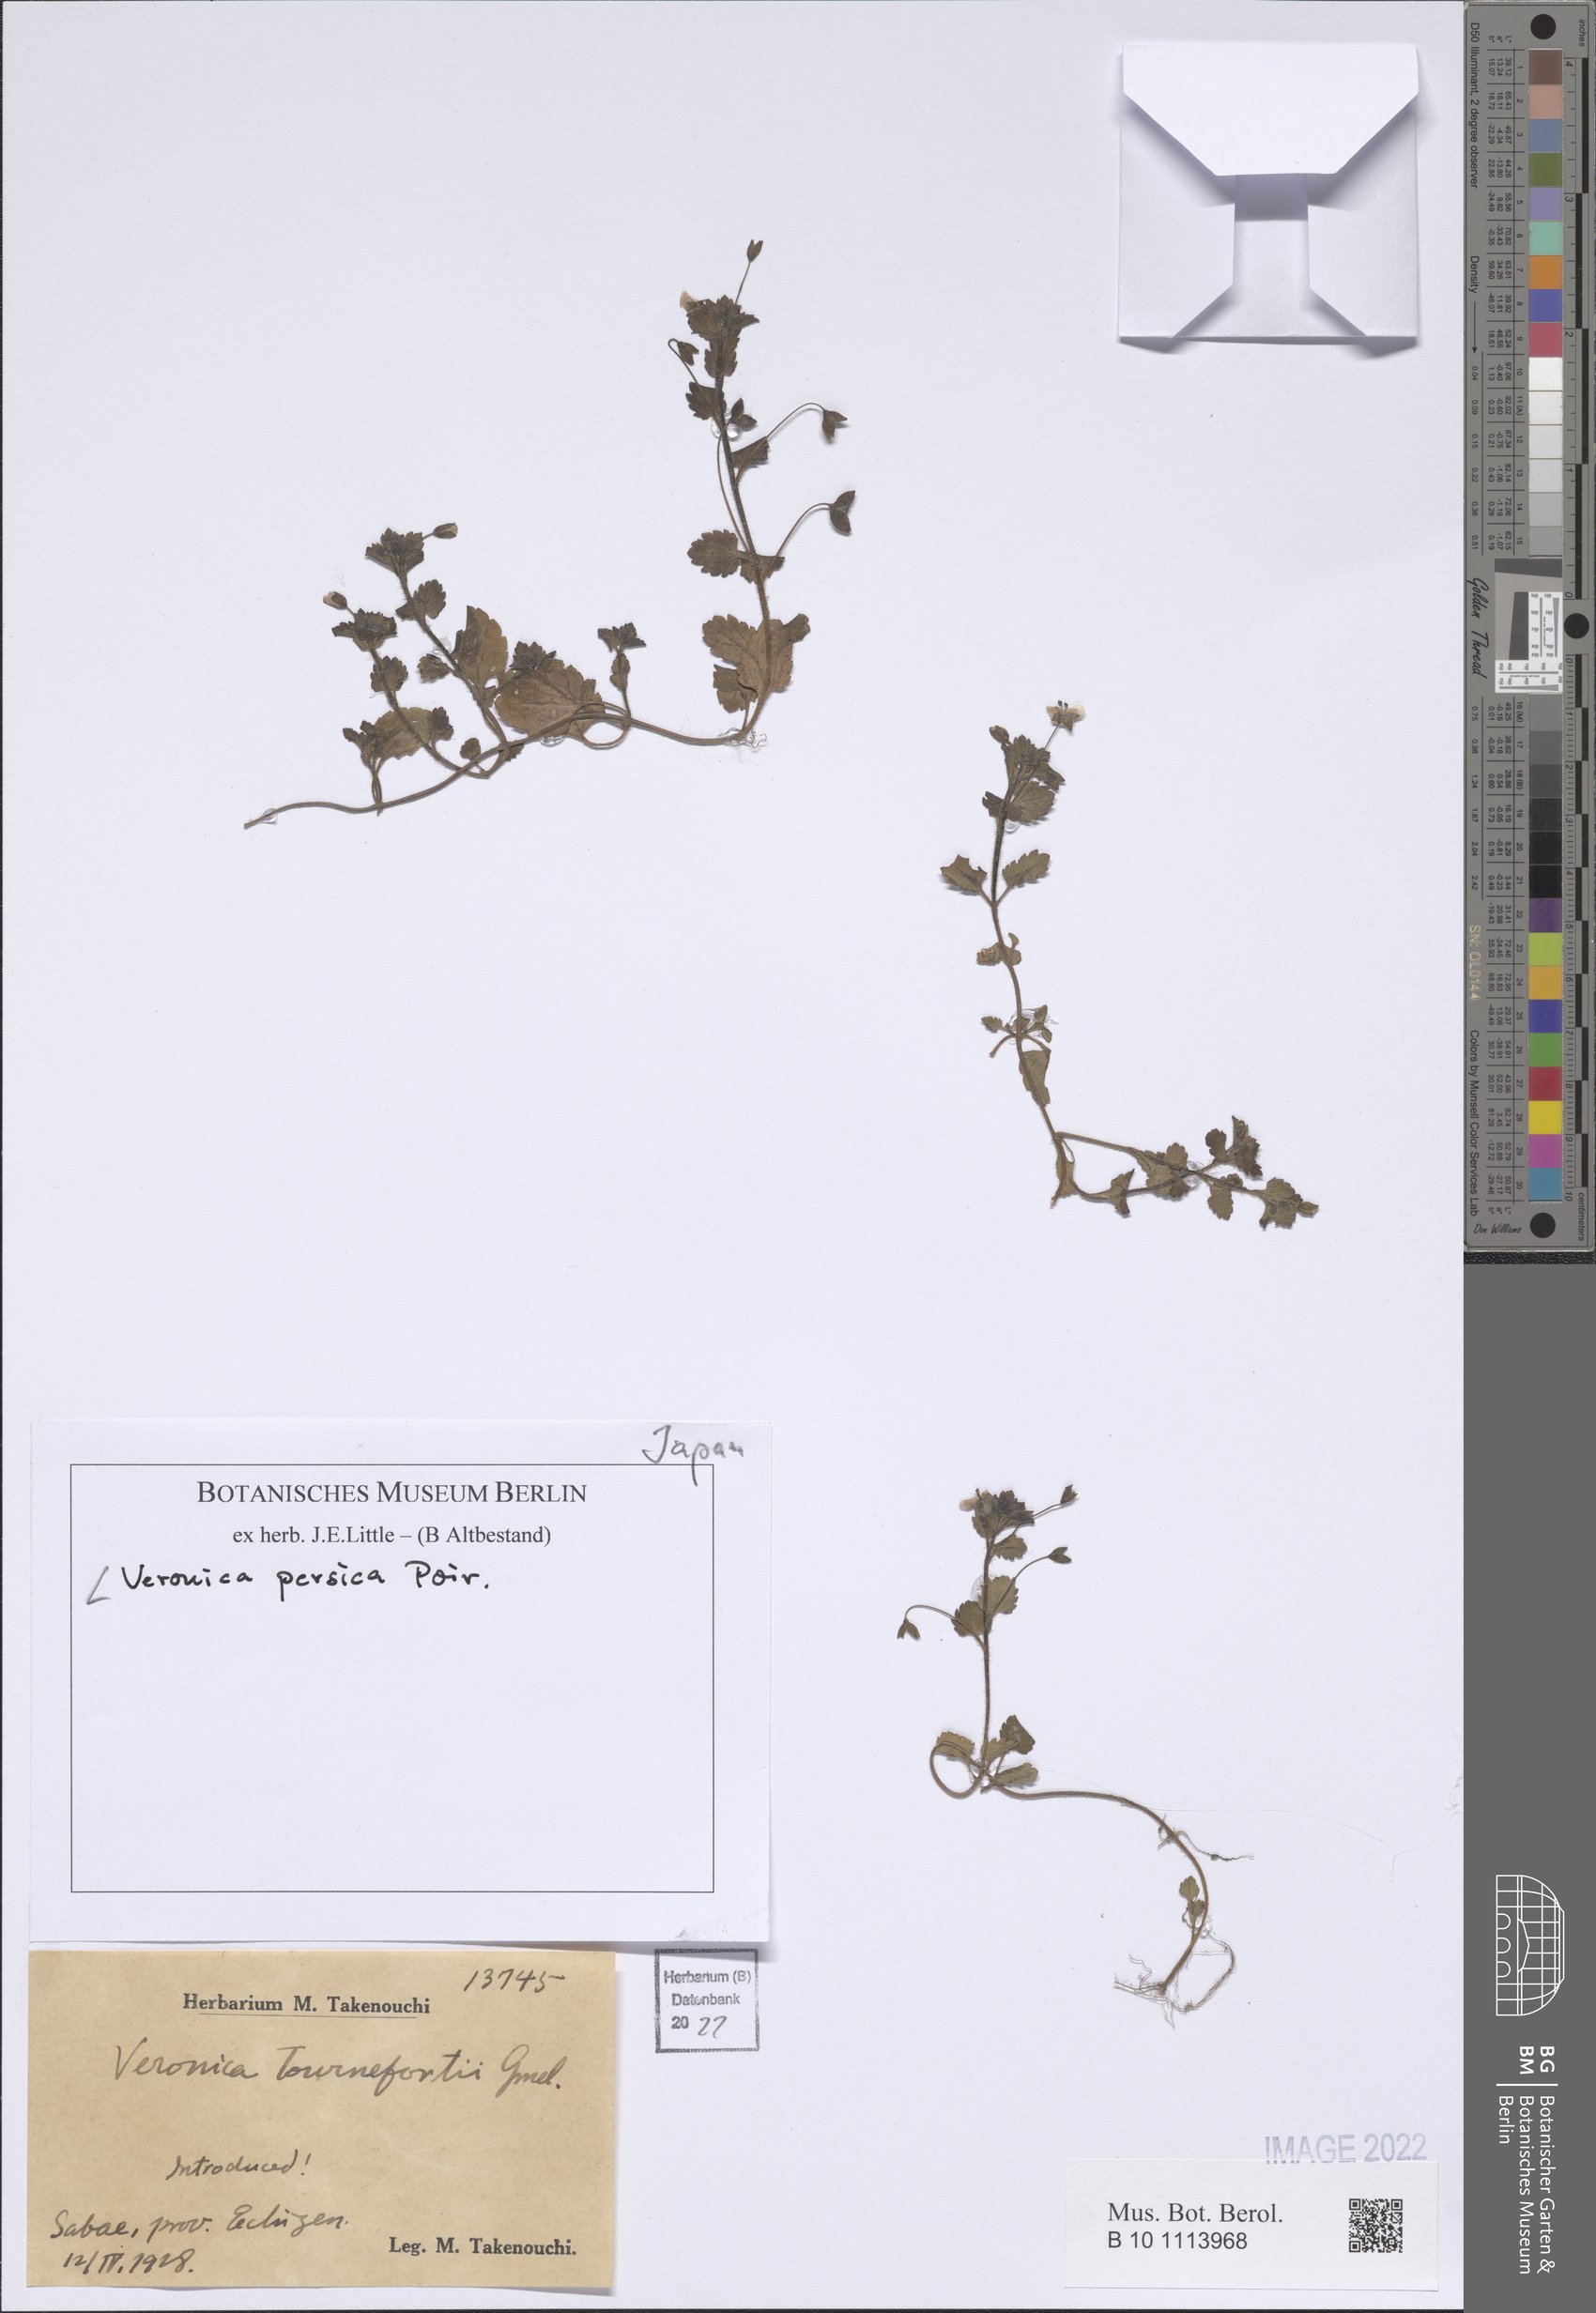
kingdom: Plantae
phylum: Tracheophyta
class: Magnoliopsida
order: Lamiales
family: Plantaginaceae
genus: Veronica
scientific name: Veronica persica
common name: Common field-speedwell
